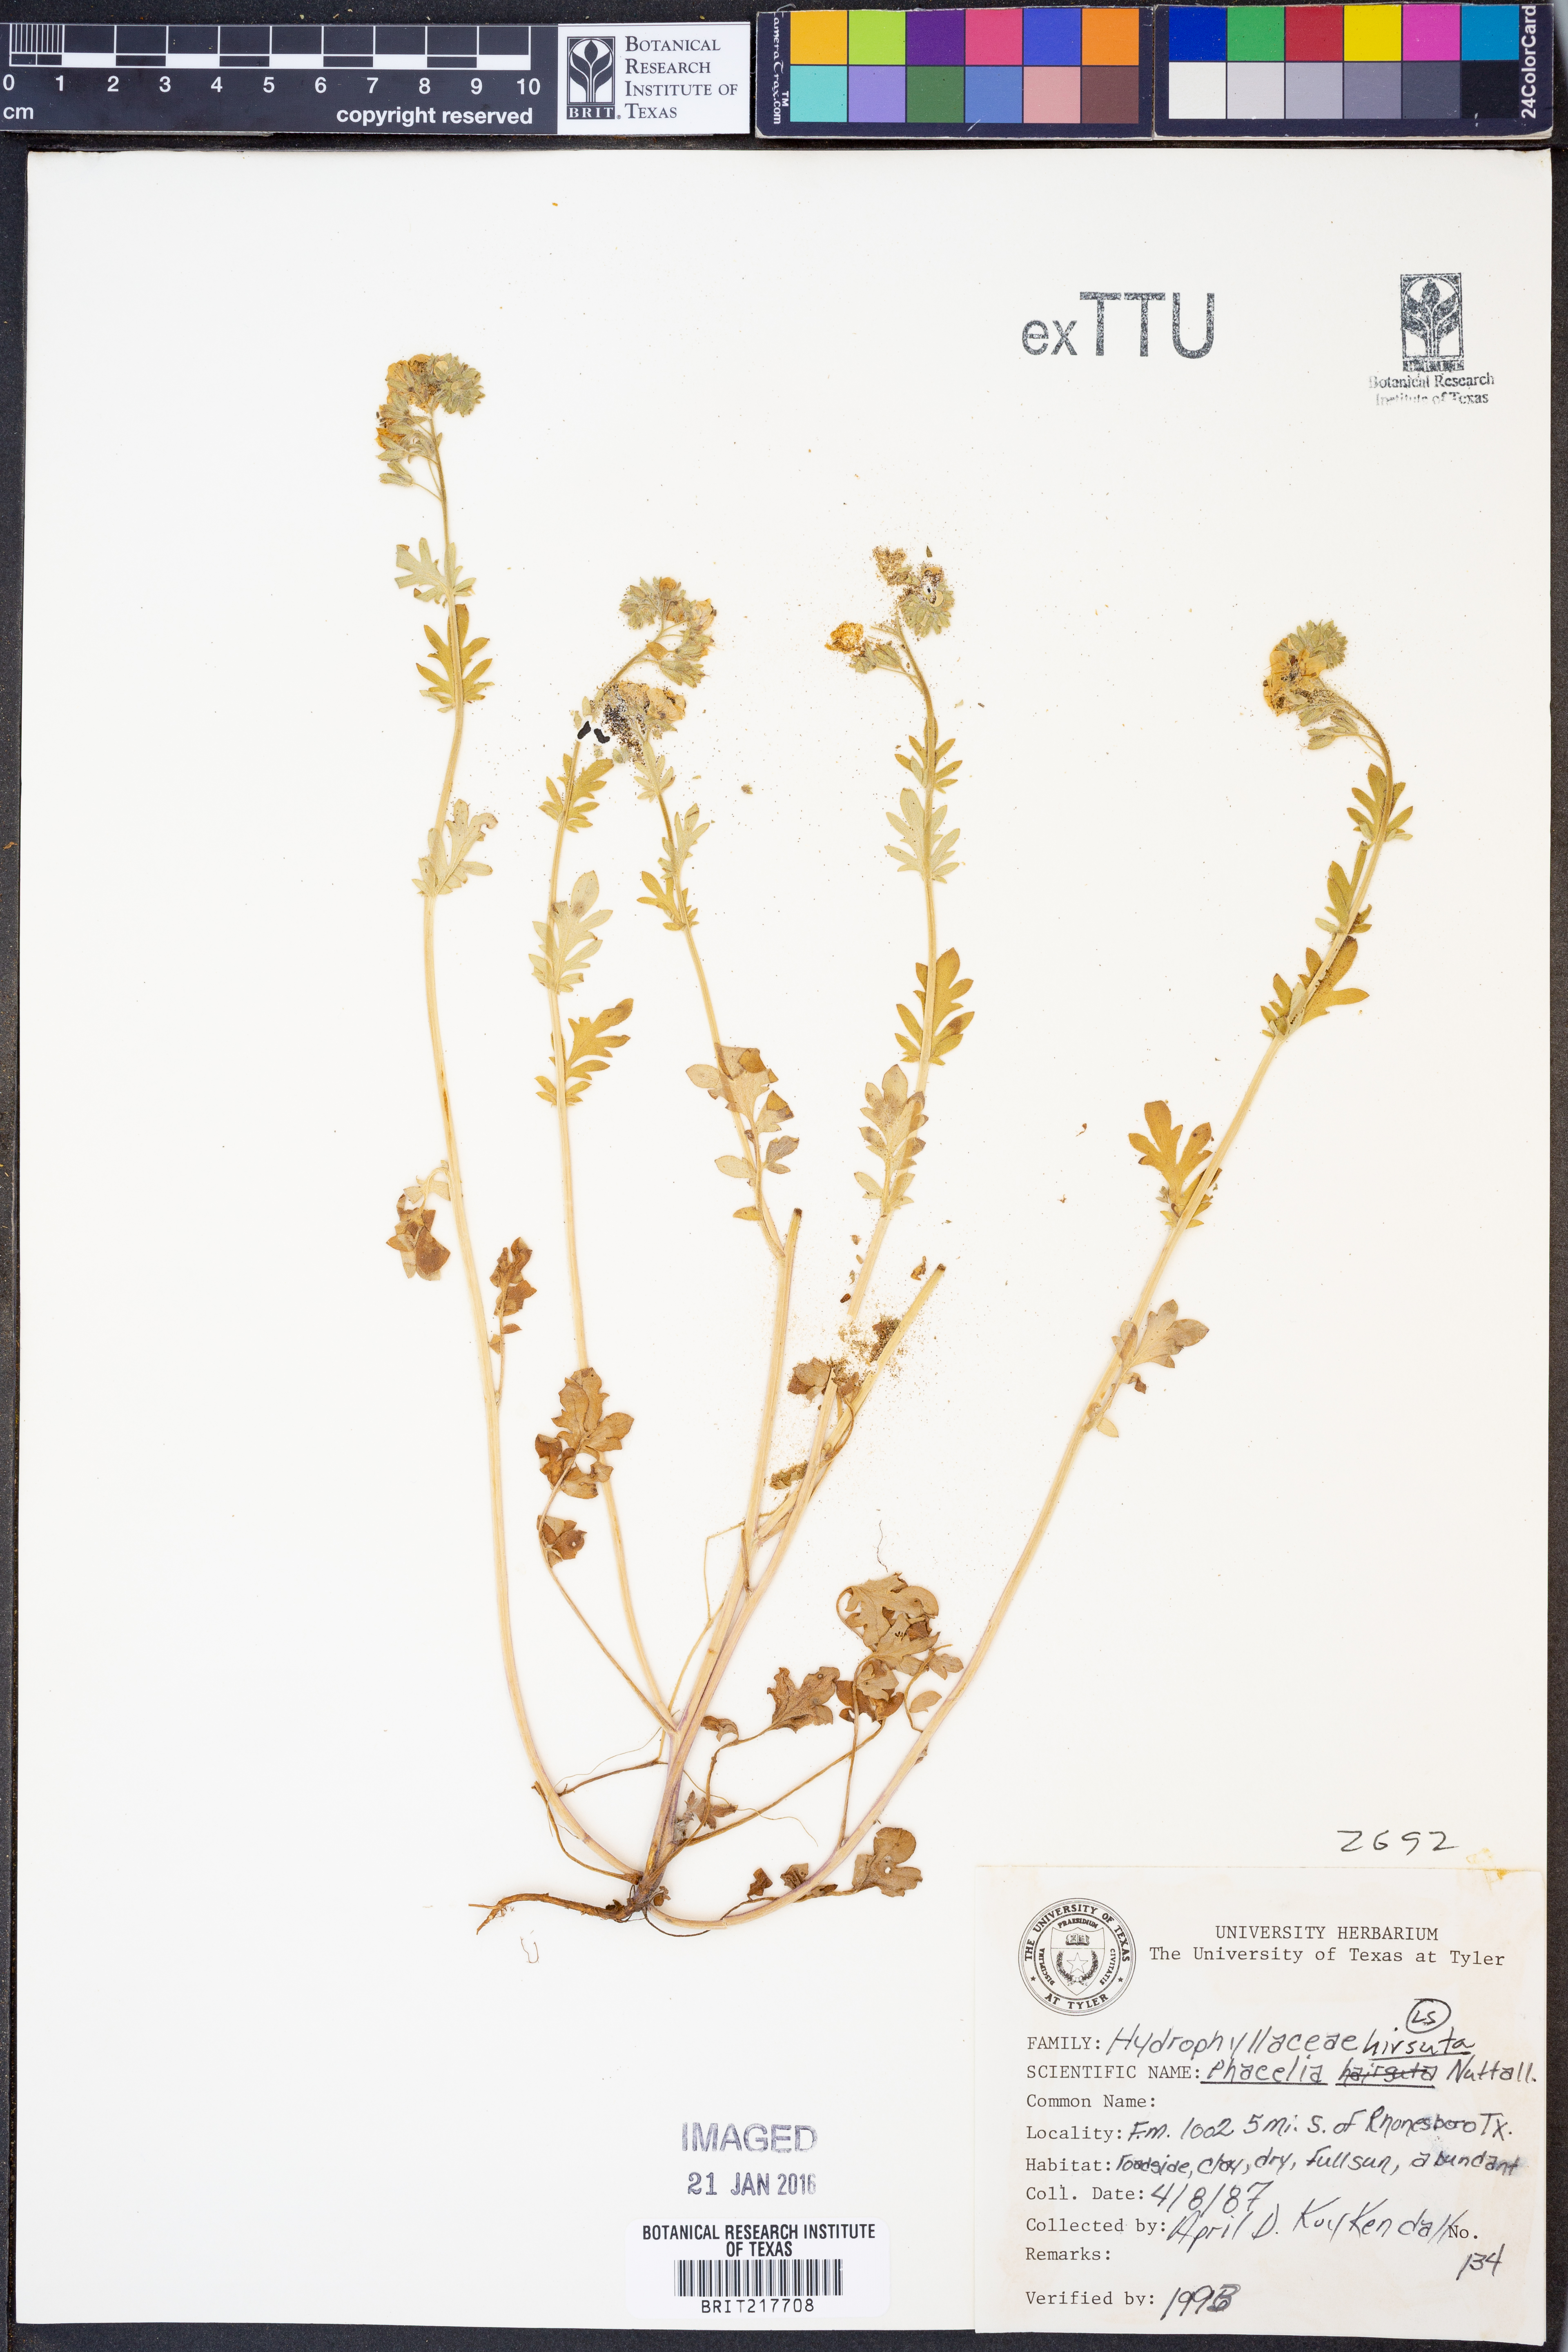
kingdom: Plantae
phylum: Tracheophyta
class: Magnoliopsida
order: Boraginales
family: Hydrophyllaceae
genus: Phacelia
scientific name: Phacelia hirsuta
